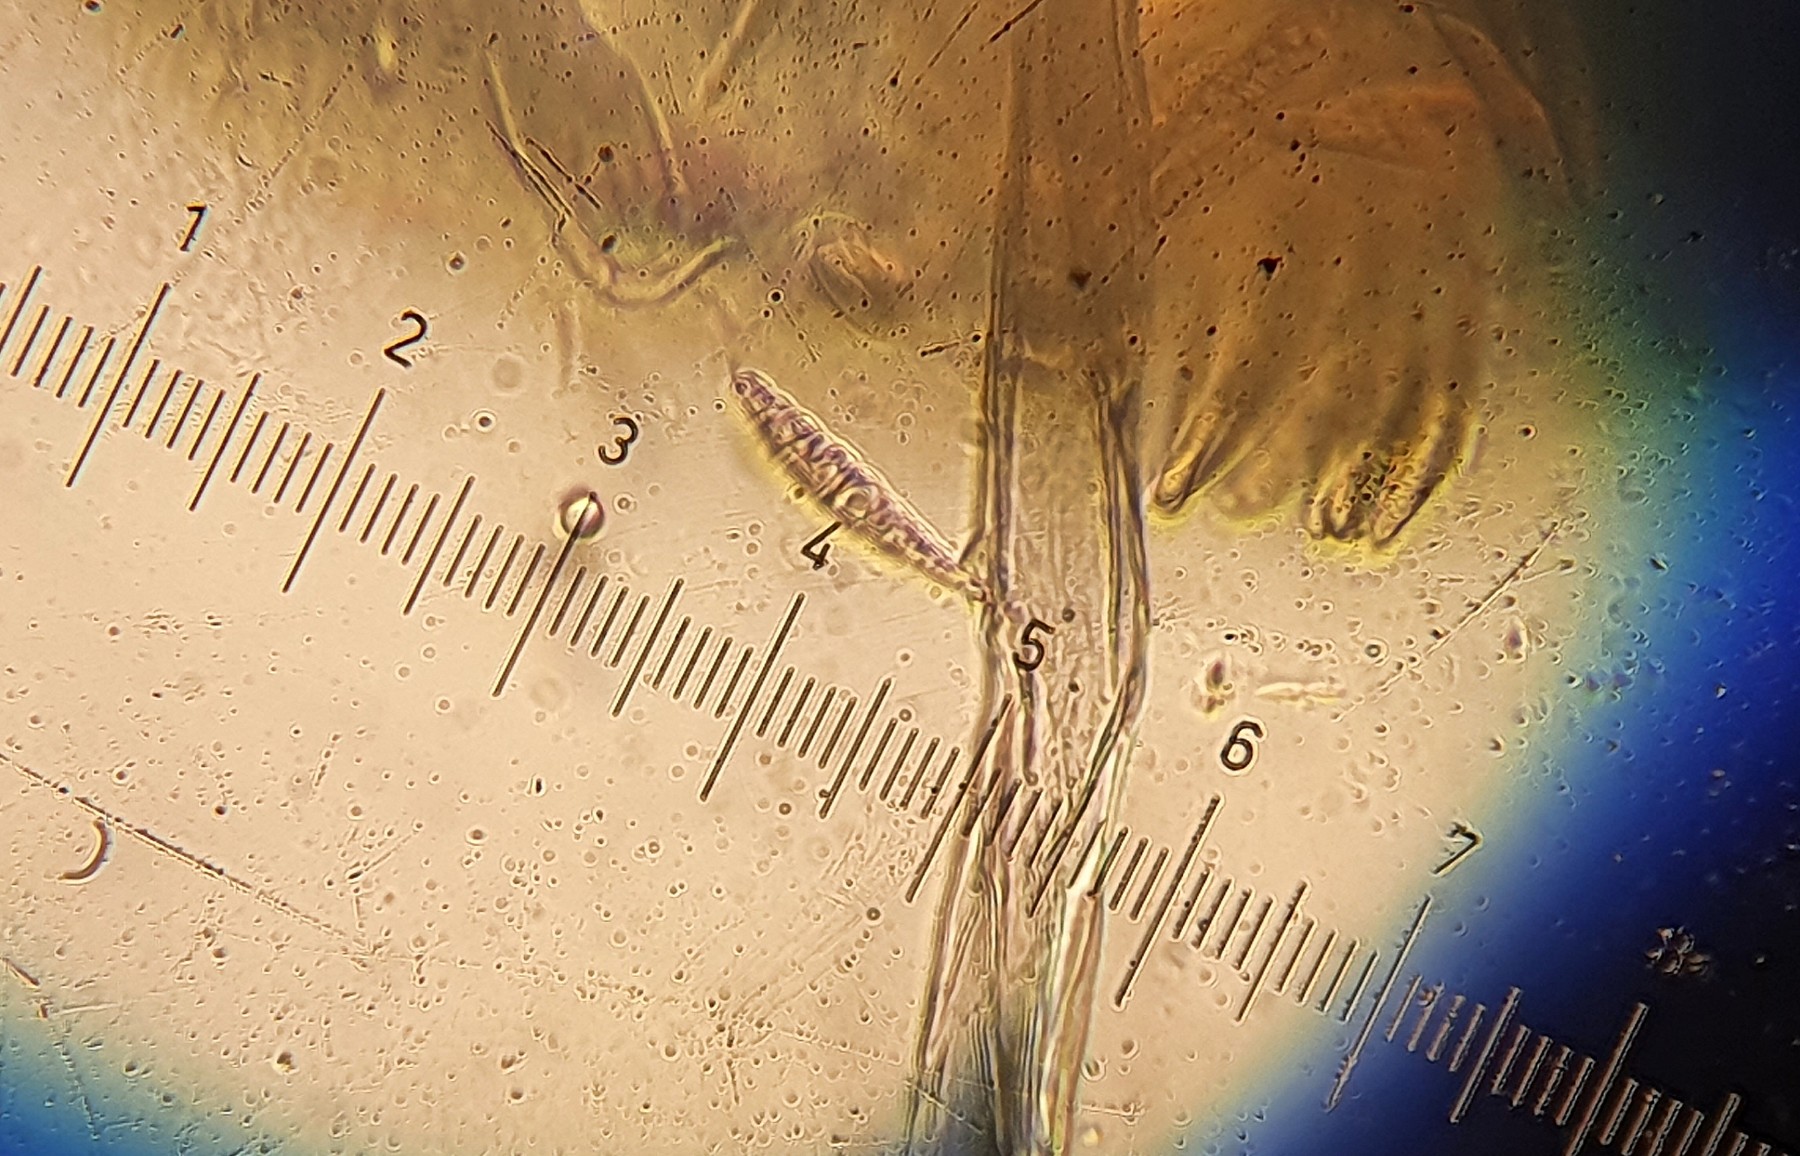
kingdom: Fungi
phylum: Ascomycota
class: Dothideomycetes
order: Pleosporales
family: Leptosphaeriaceae
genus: Leptosphaeria
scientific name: Leptosphaeria acuta
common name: spids kulkegle
